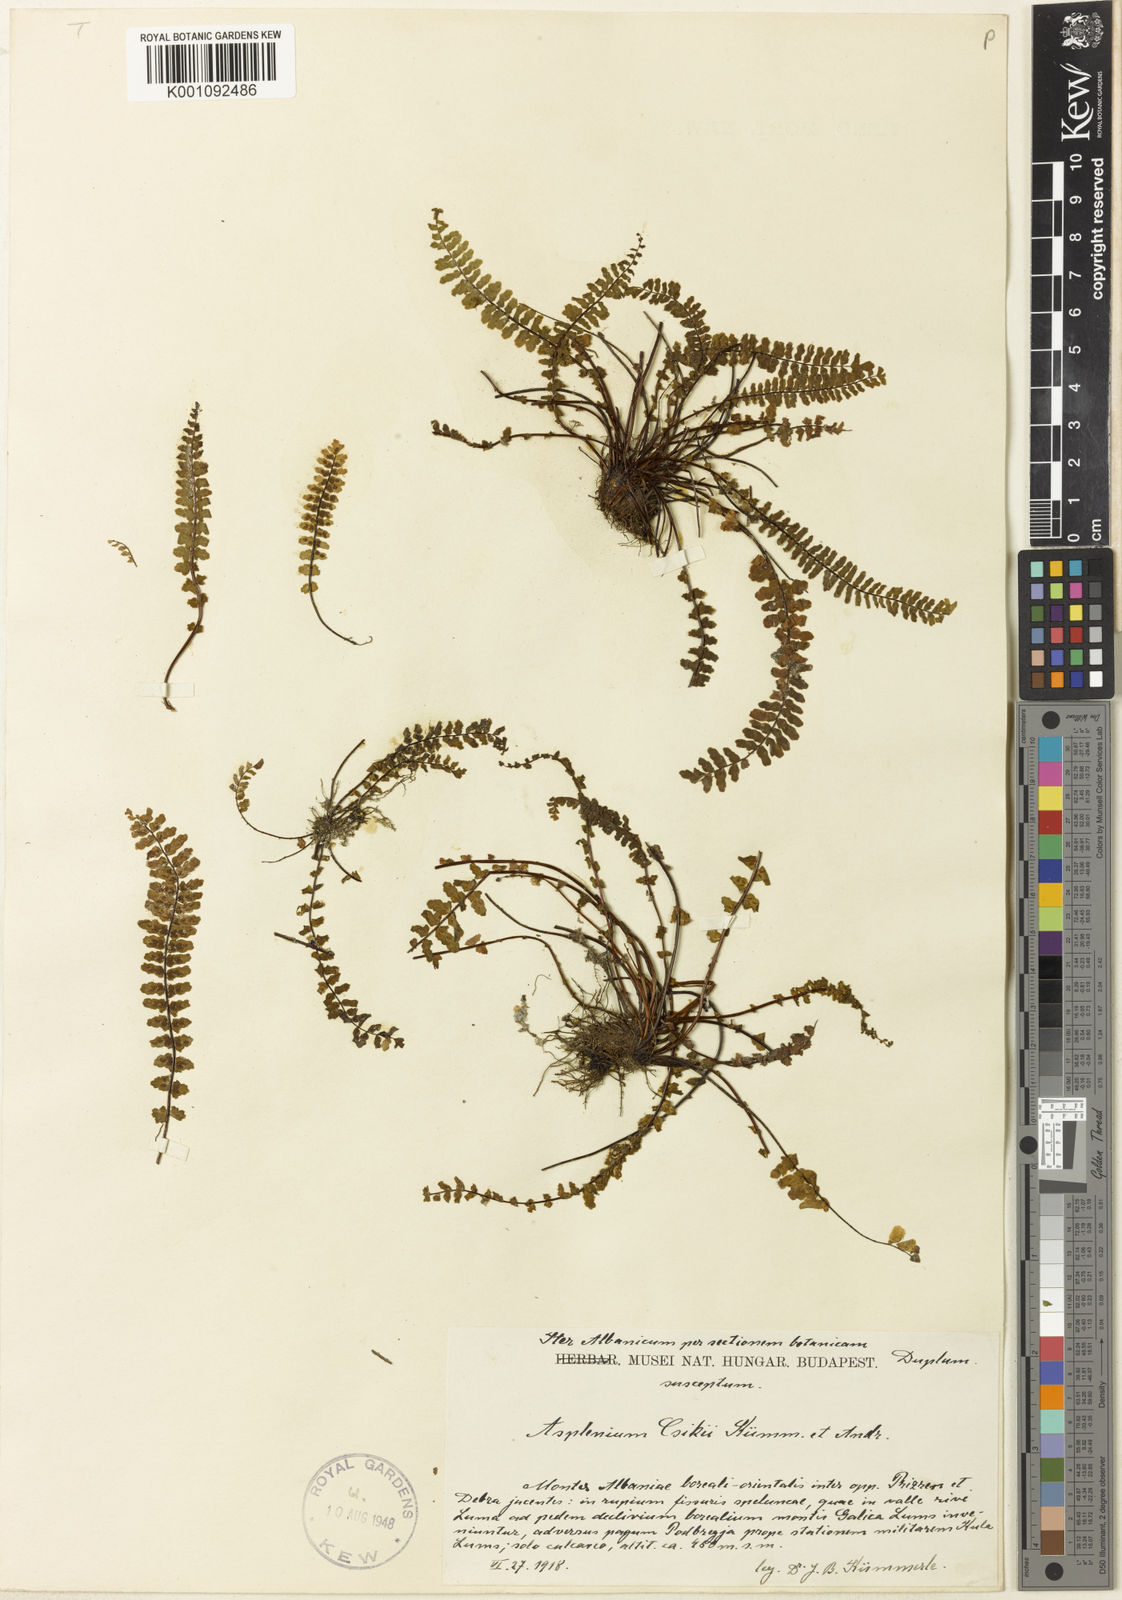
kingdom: Plantae
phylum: Tracheophyta
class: Polypodiopsida
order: Polypodiales
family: Aspleniaceae
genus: Asplenium
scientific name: Asplenium
